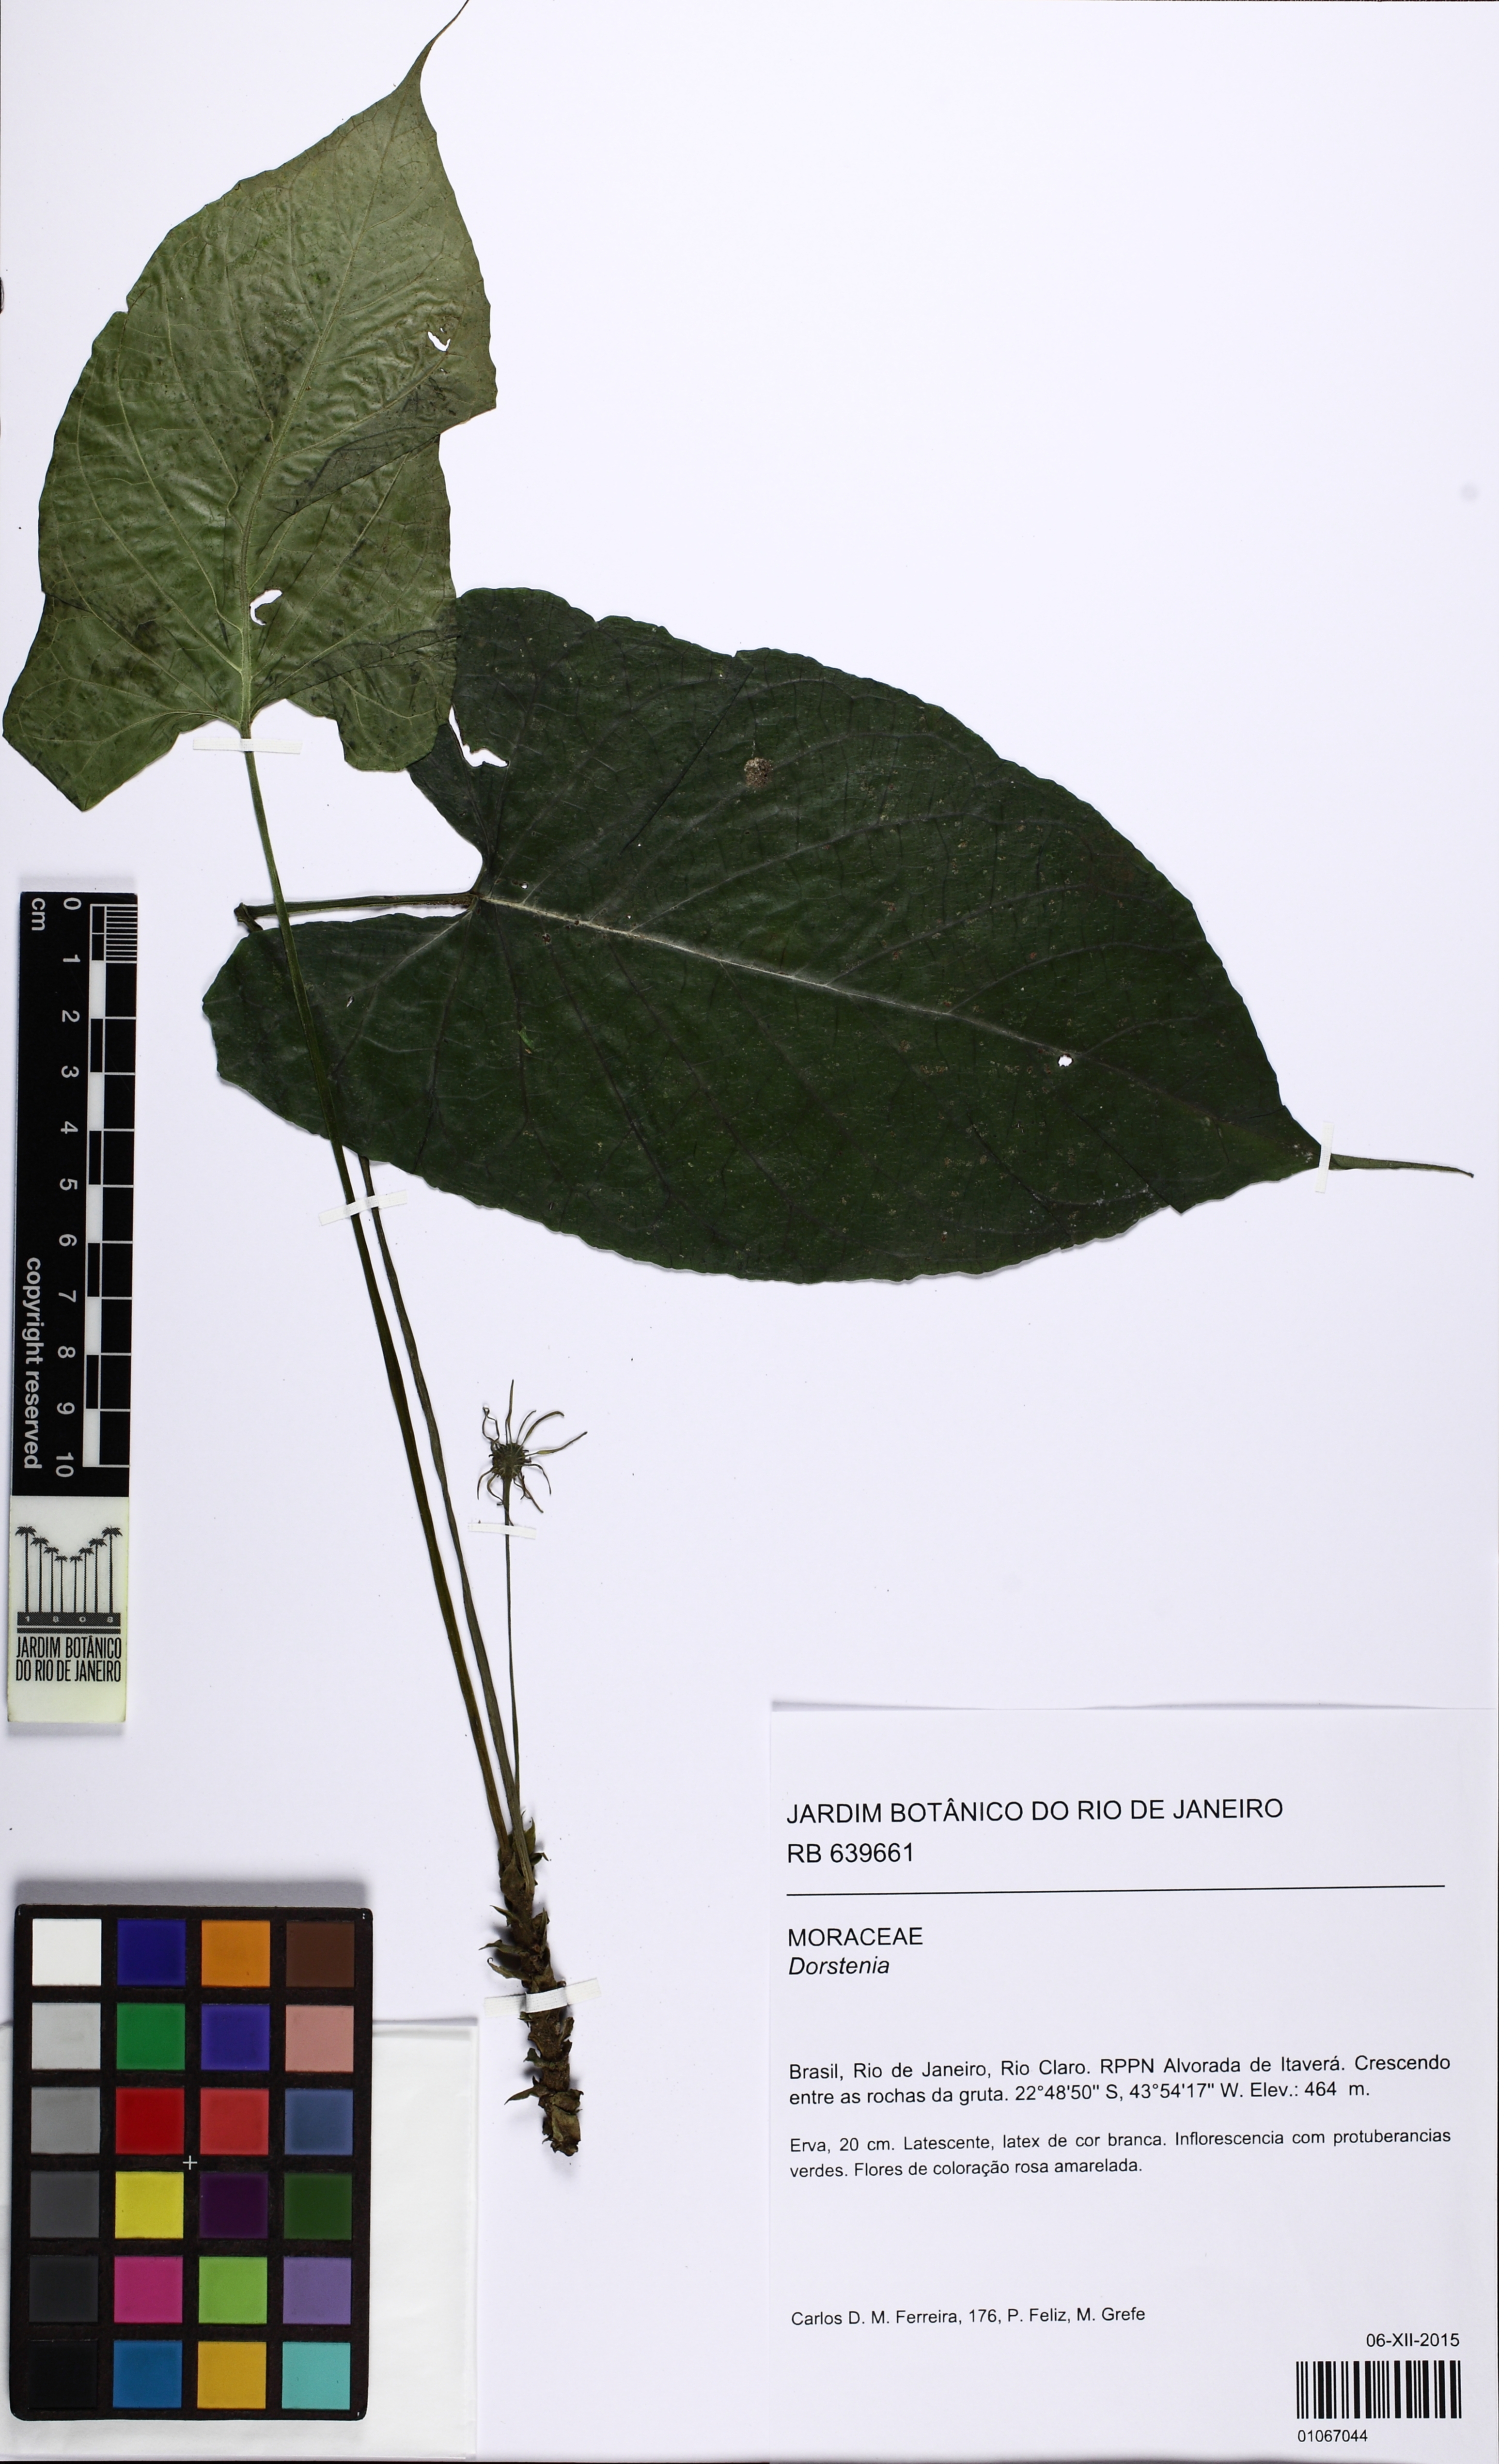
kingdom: Plantae
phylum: Tracheophyta
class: Magnoliopsida
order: Rosales
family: Moraceae
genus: Dorstenia
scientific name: Dorstenia tentaculata
